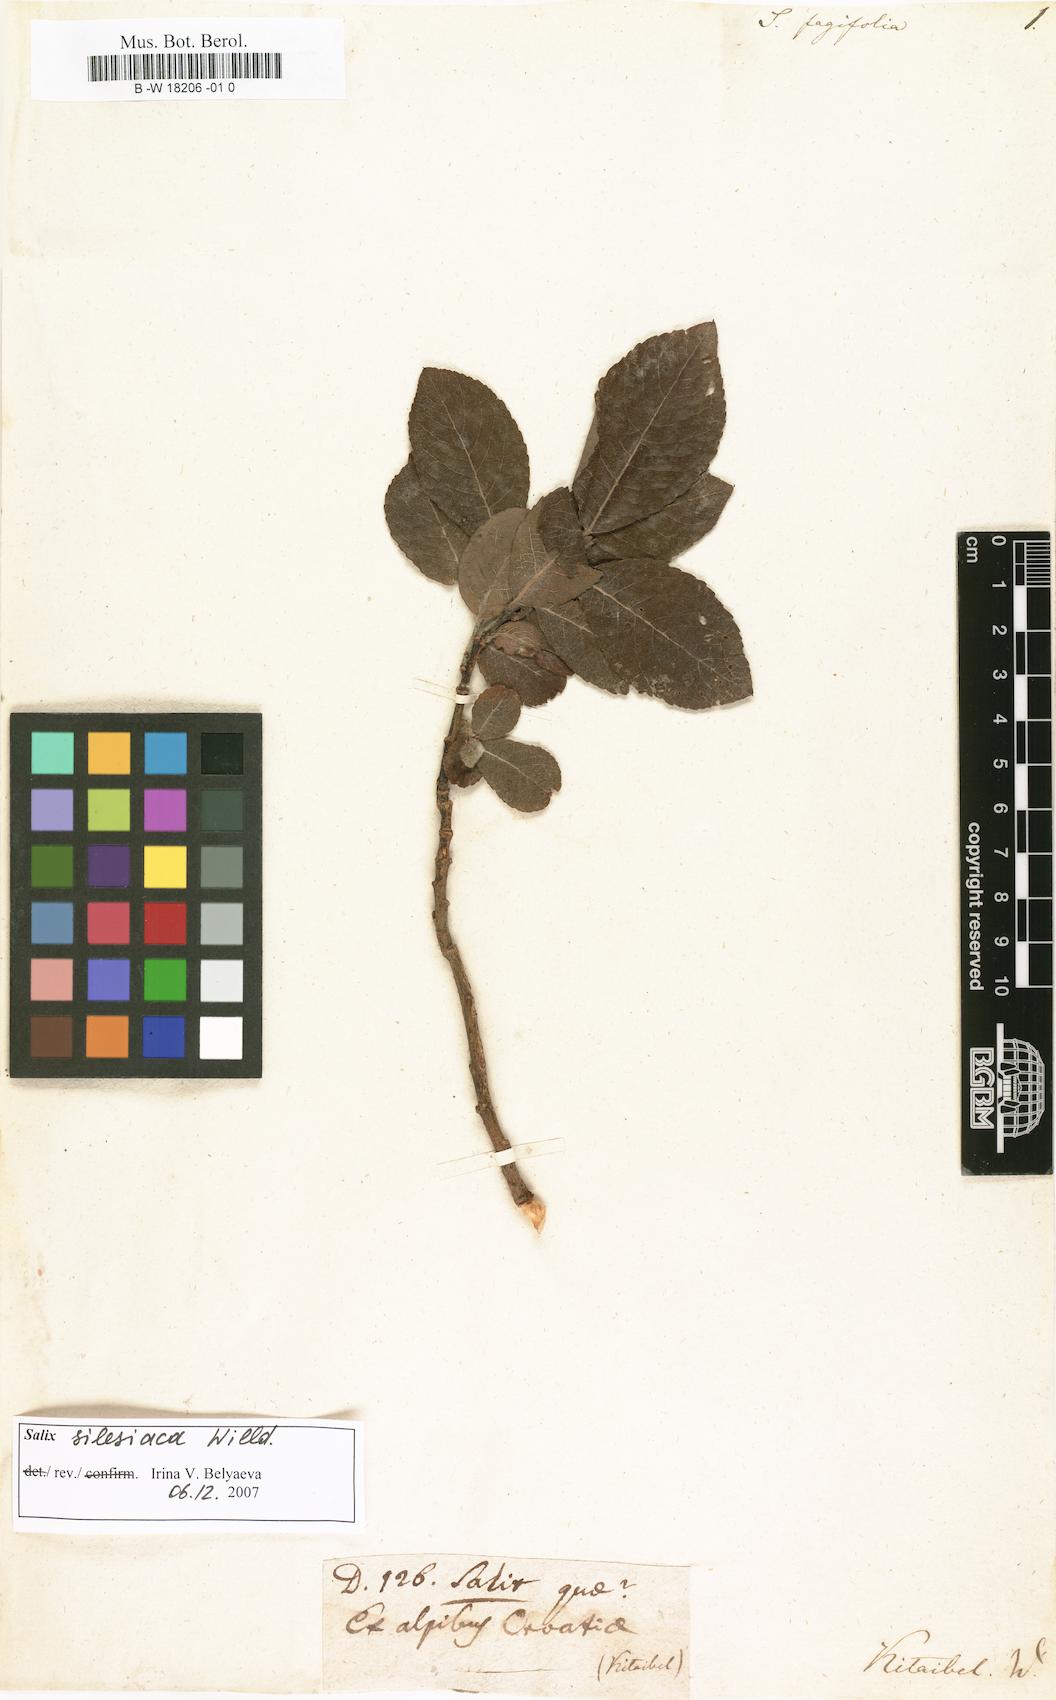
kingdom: Plantae
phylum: Tracheophyta
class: Magnoliopsida
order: Malpighiales
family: Salicaceae
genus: Salix
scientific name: Salix
